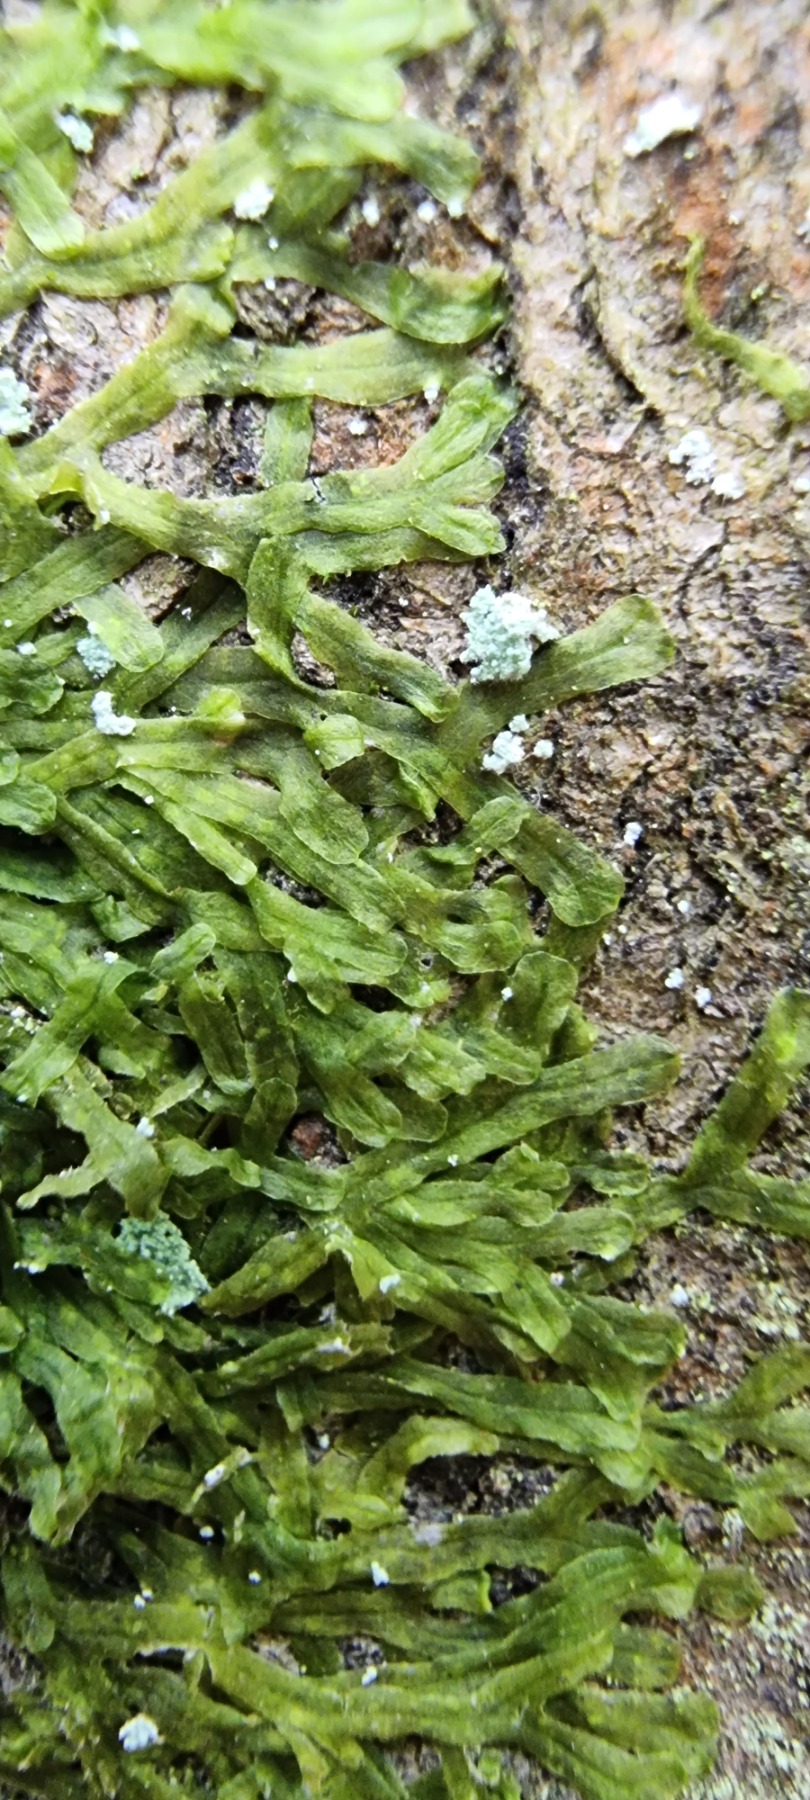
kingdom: Plantae
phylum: Marchantiophyta
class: Jungermanniopsida
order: Metzgeriales
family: Metzgeriaceae
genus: Metzgeria
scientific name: Metzgeria furcata
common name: Almindelig gaffelløv
